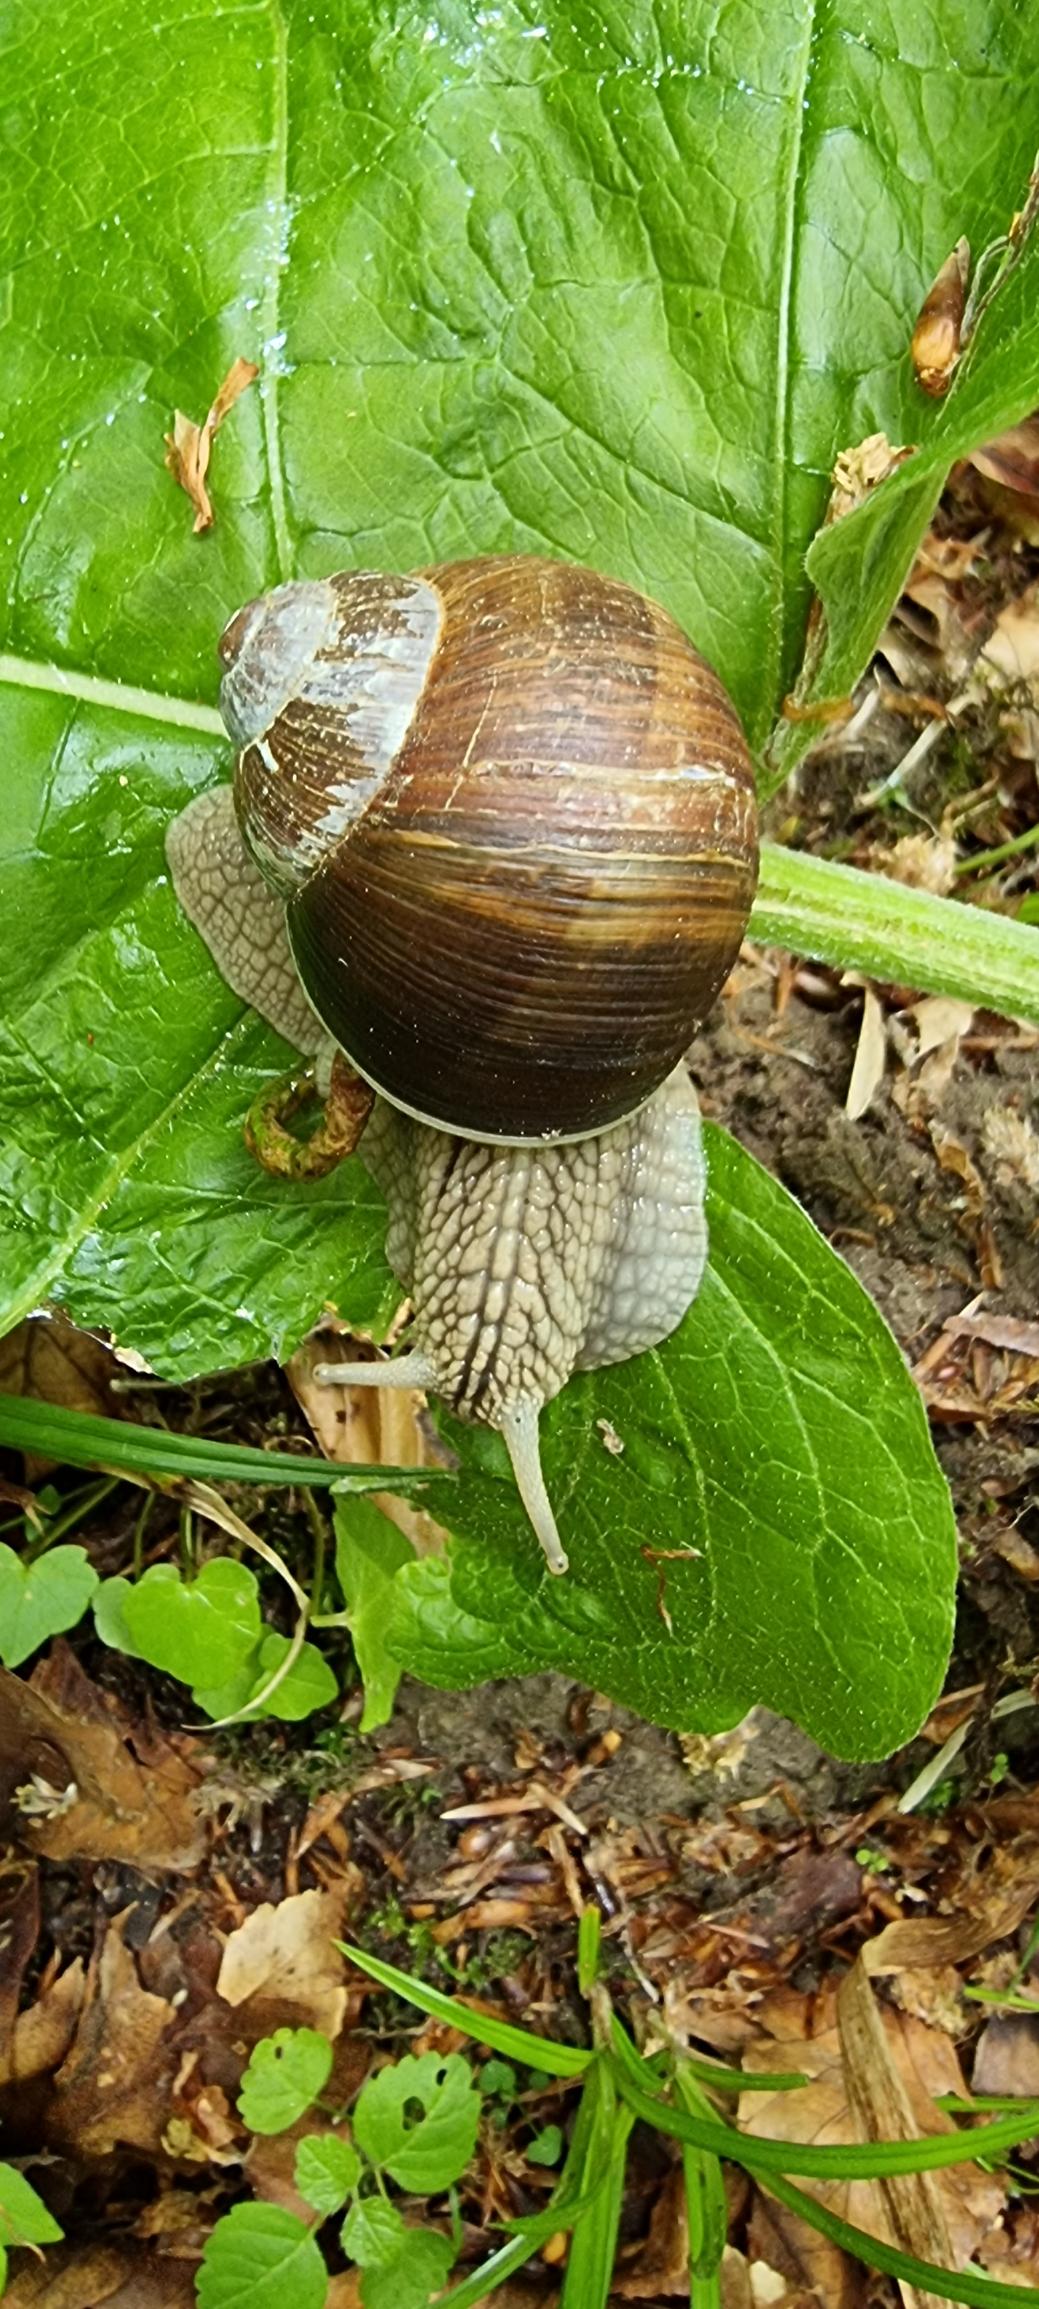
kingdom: Animalia
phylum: Mollusca
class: Gastropoda
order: Stylommatophora
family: Helicidae
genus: Helix
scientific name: Helix pomatia
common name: Vinbjergsnegl
